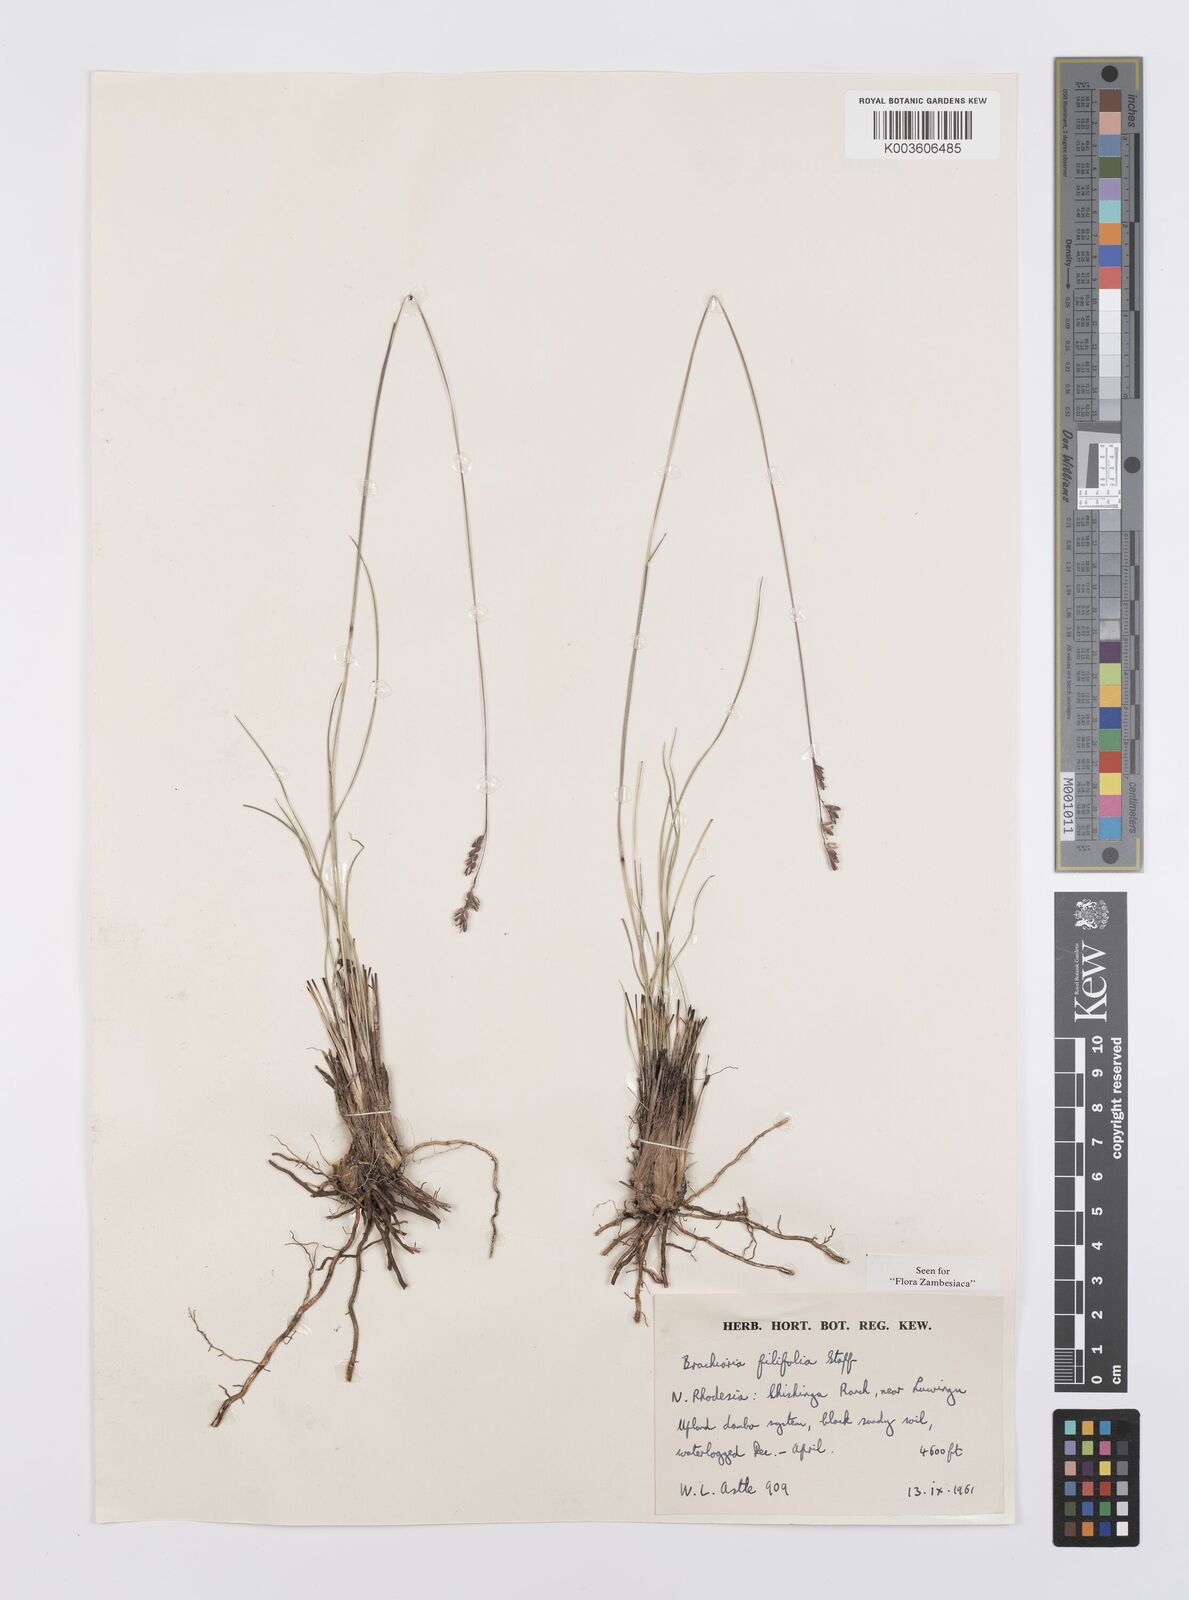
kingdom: Plantae
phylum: Tracheophyta
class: Liliopsida
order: Poales
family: Poaceae
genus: Urochloa
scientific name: Urochloa subulifolia
